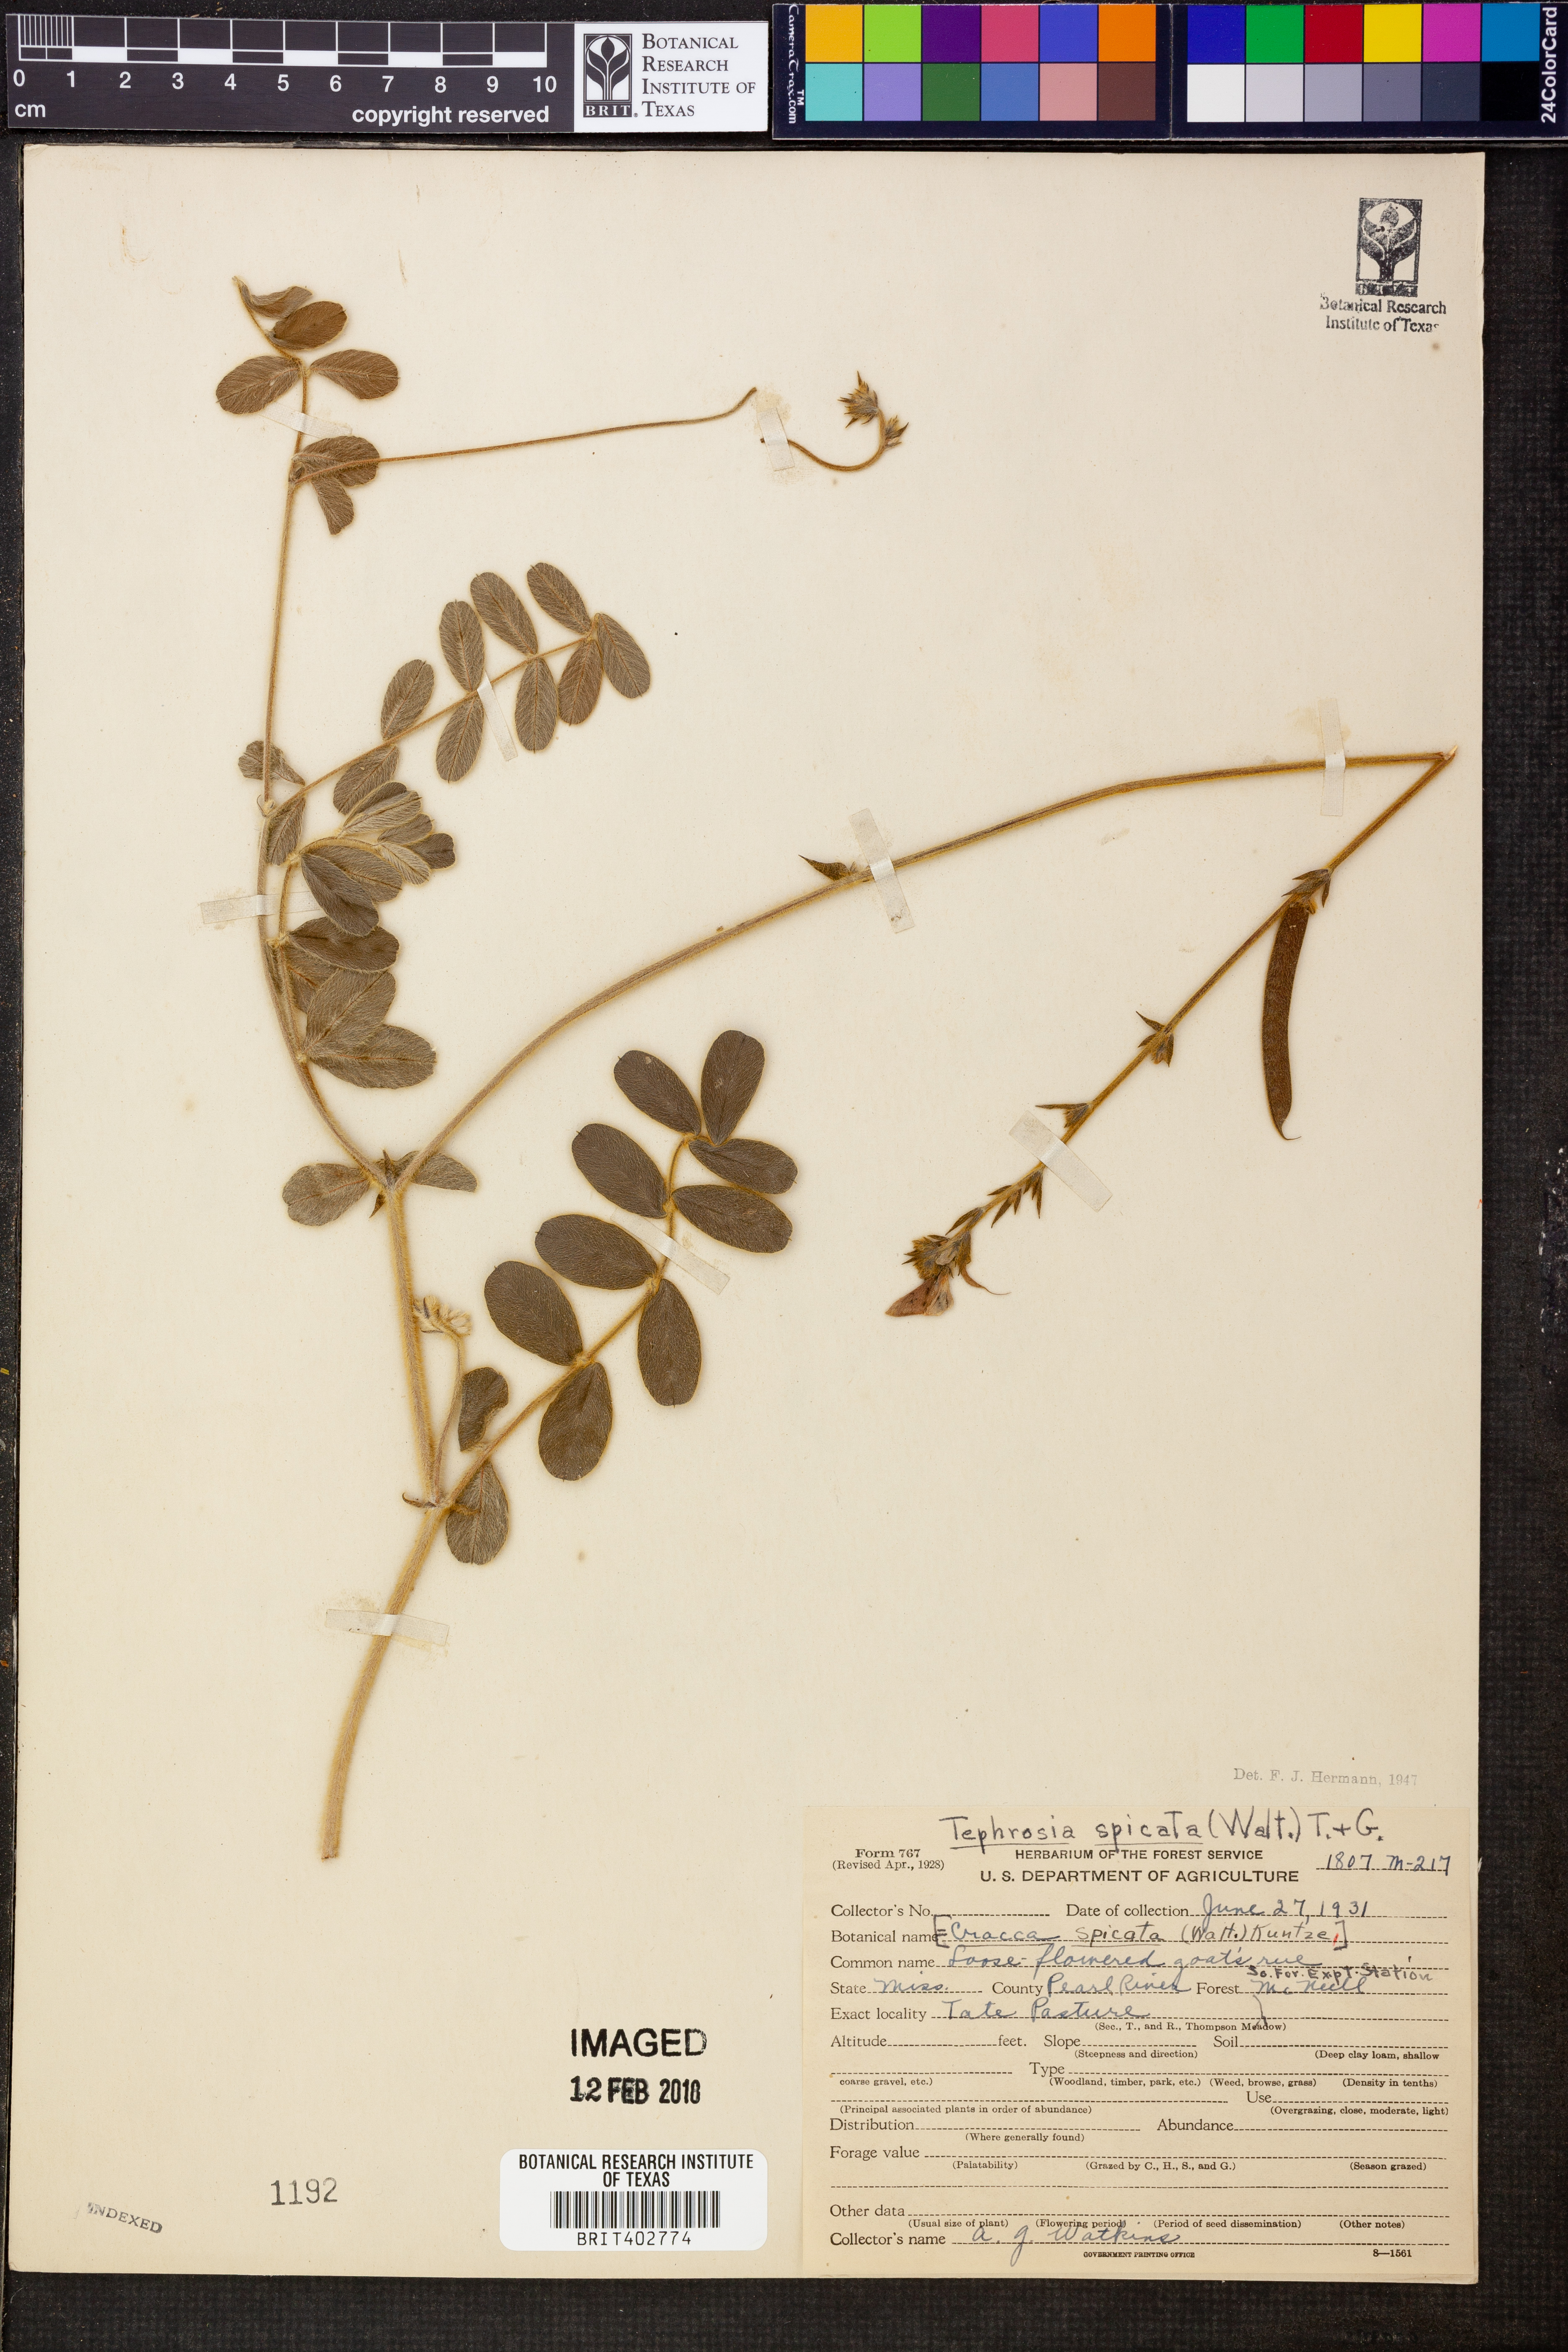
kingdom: Plantae
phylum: Tracheophyta
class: Magnoliopsida
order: Fabales
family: Fabaceae
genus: Tephrosia
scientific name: Tephrosia spicata
